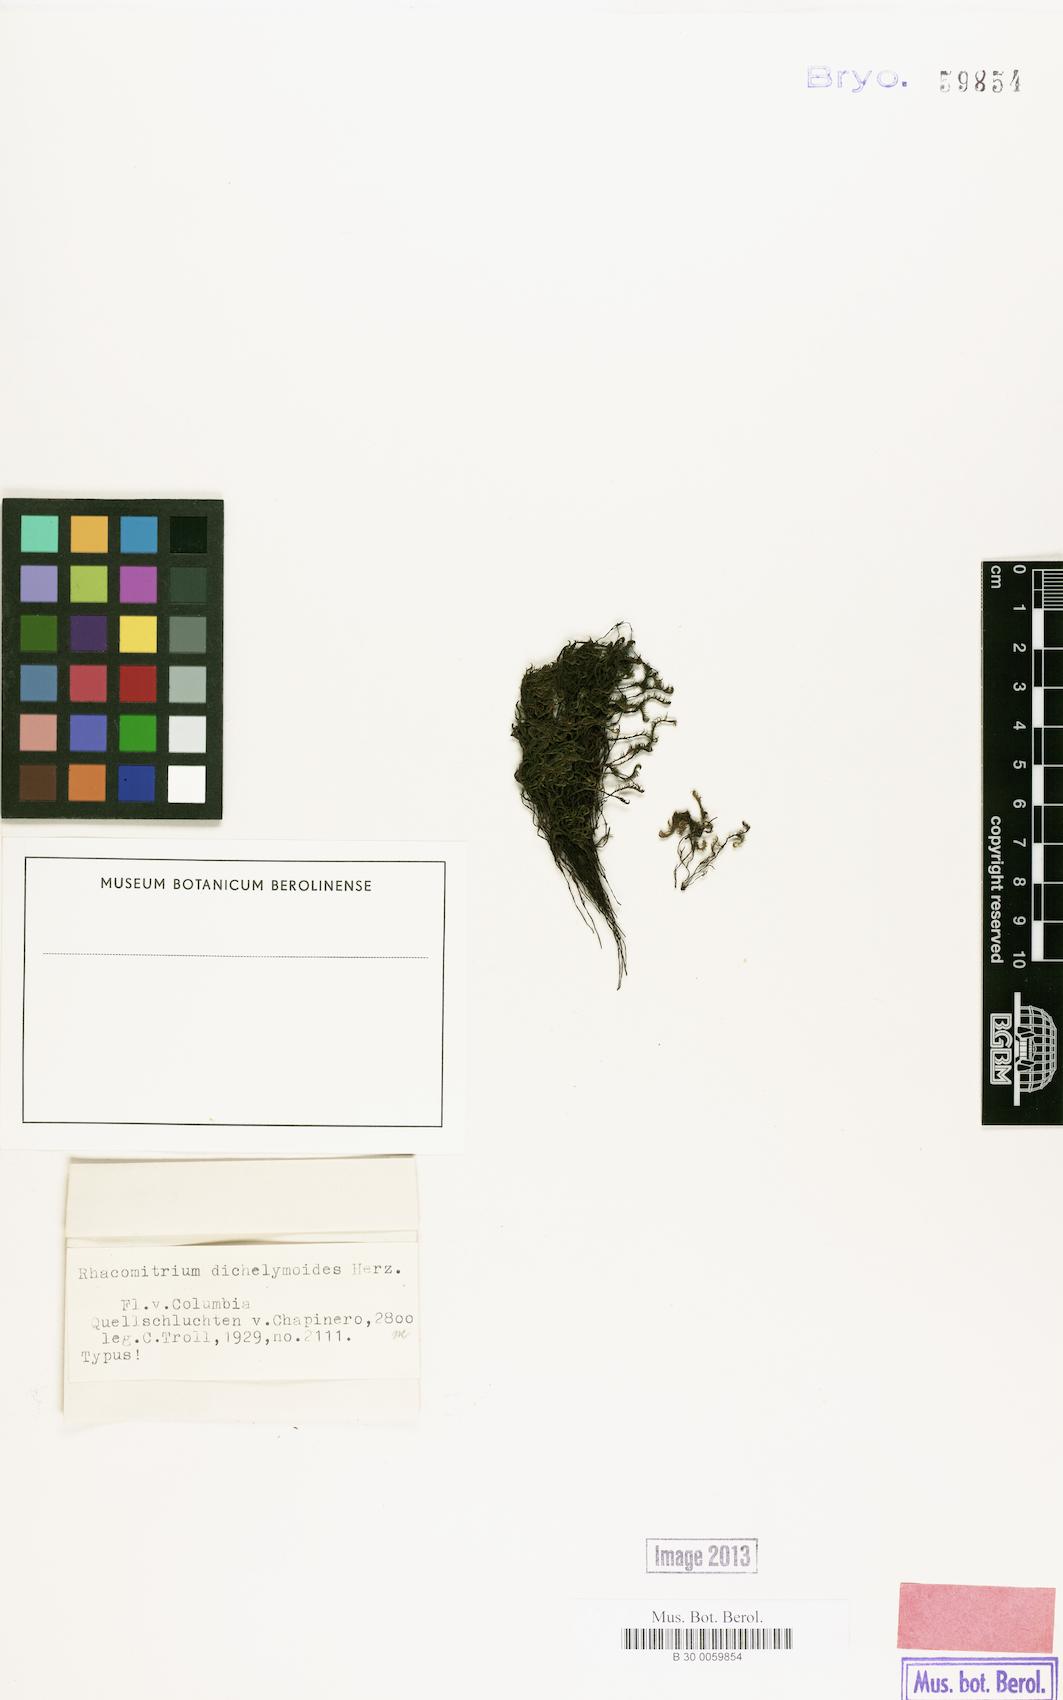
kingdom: Plantae
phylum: Bryophyta
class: Bryopsida
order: Grimmiales
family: Grimmiaceae
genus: Bucklandiella
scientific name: Bucklandiella dichelymoides
